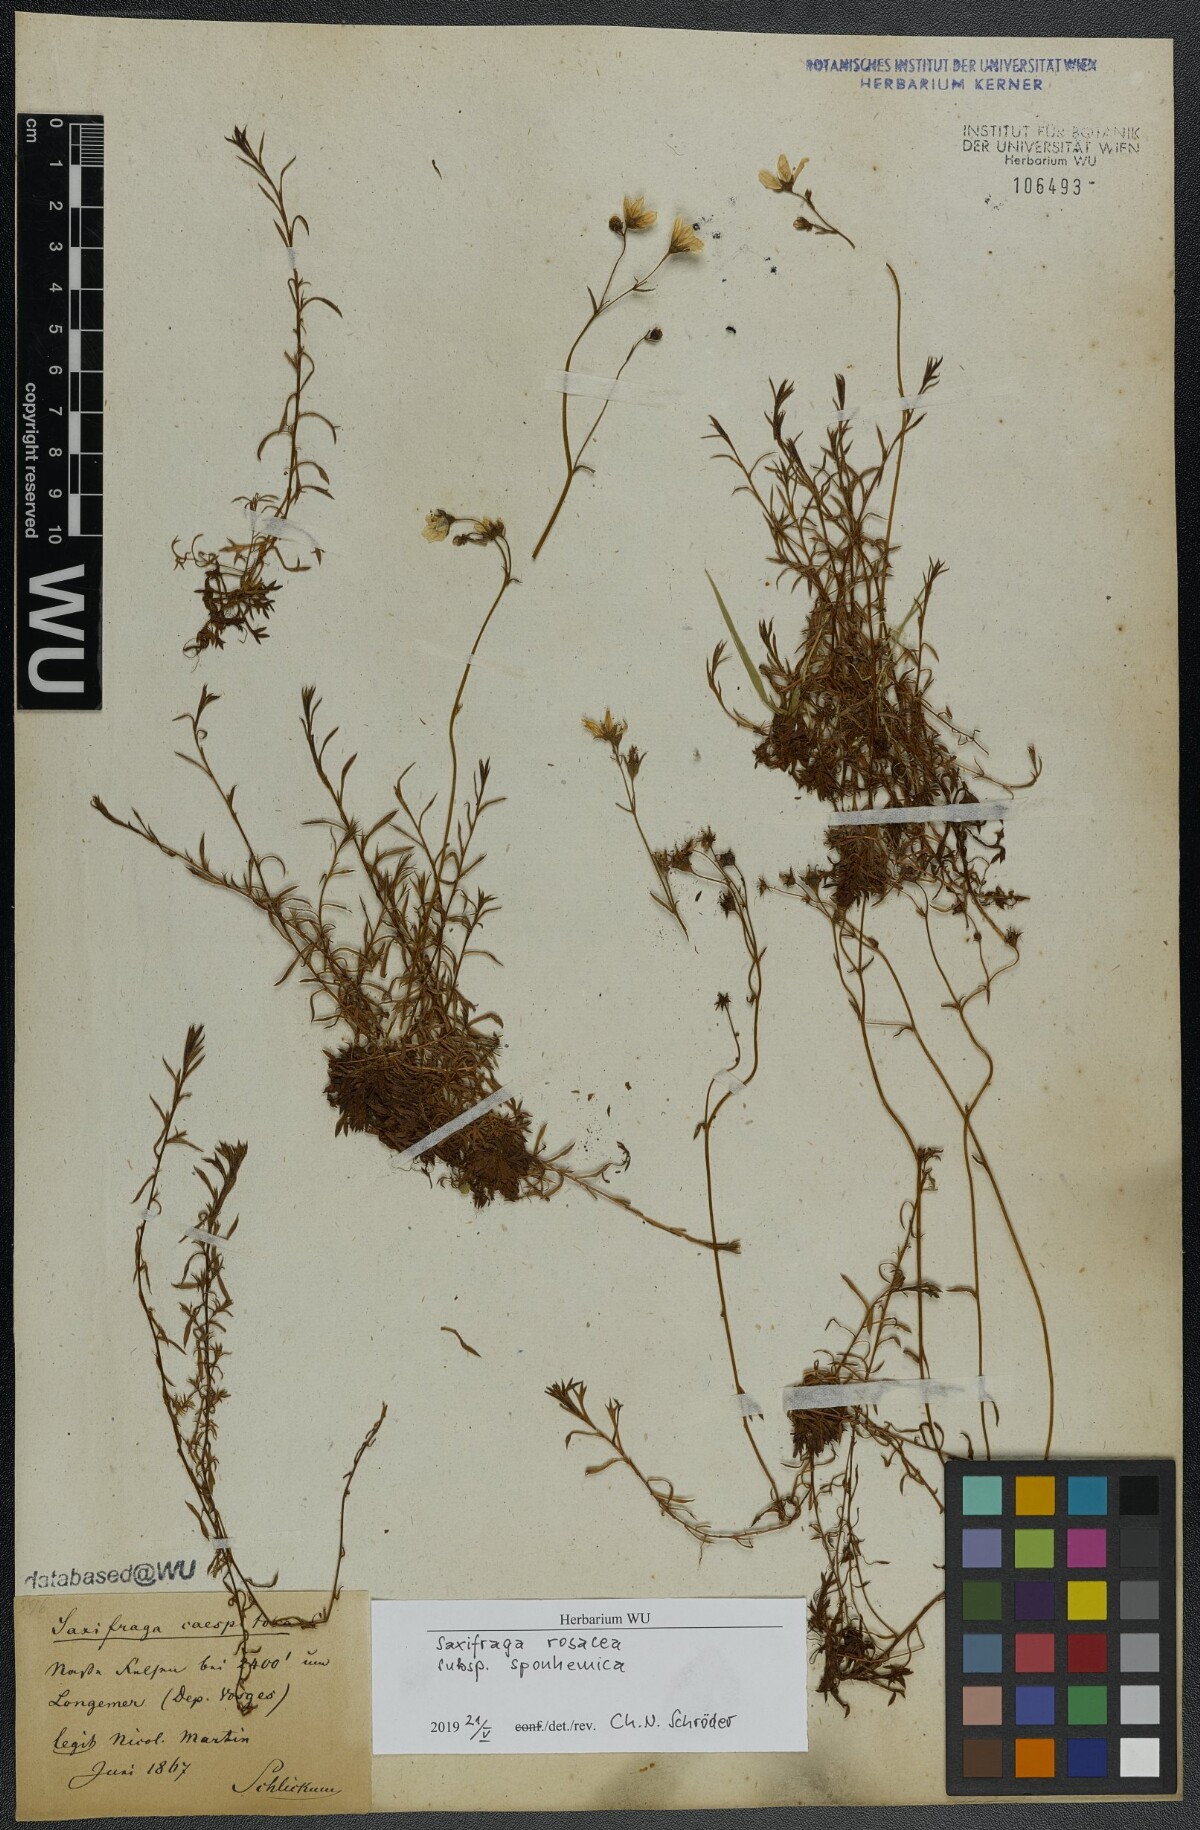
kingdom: Plantae
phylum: Tracheophyta
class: Magnoliopsida
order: Saxifragales
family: Saxifragaceae
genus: Saxifraga
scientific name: Saxifraga rosacea
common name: Irish saxifrage
